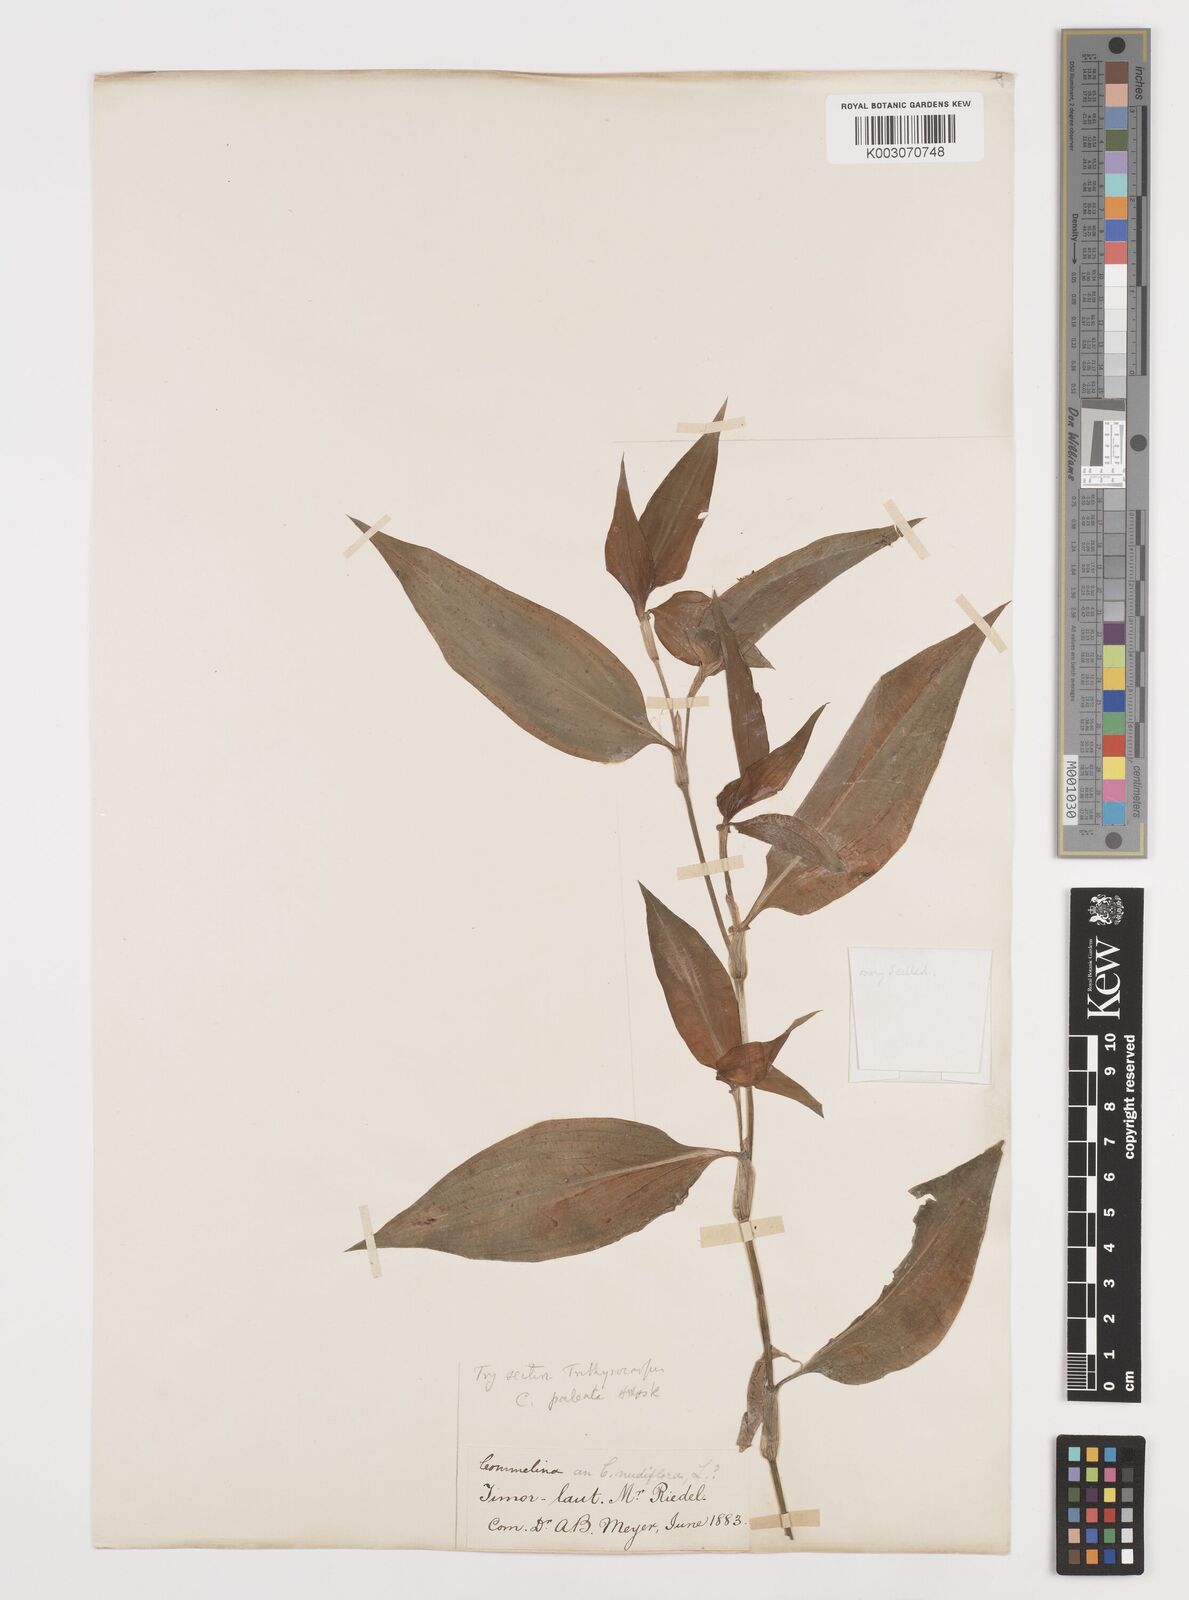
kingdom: Plantae
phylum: Tracheophyta
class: Liliopsida
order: Commelinales
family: Commelinaceae
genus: Commelina
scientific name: Commelina paleata
